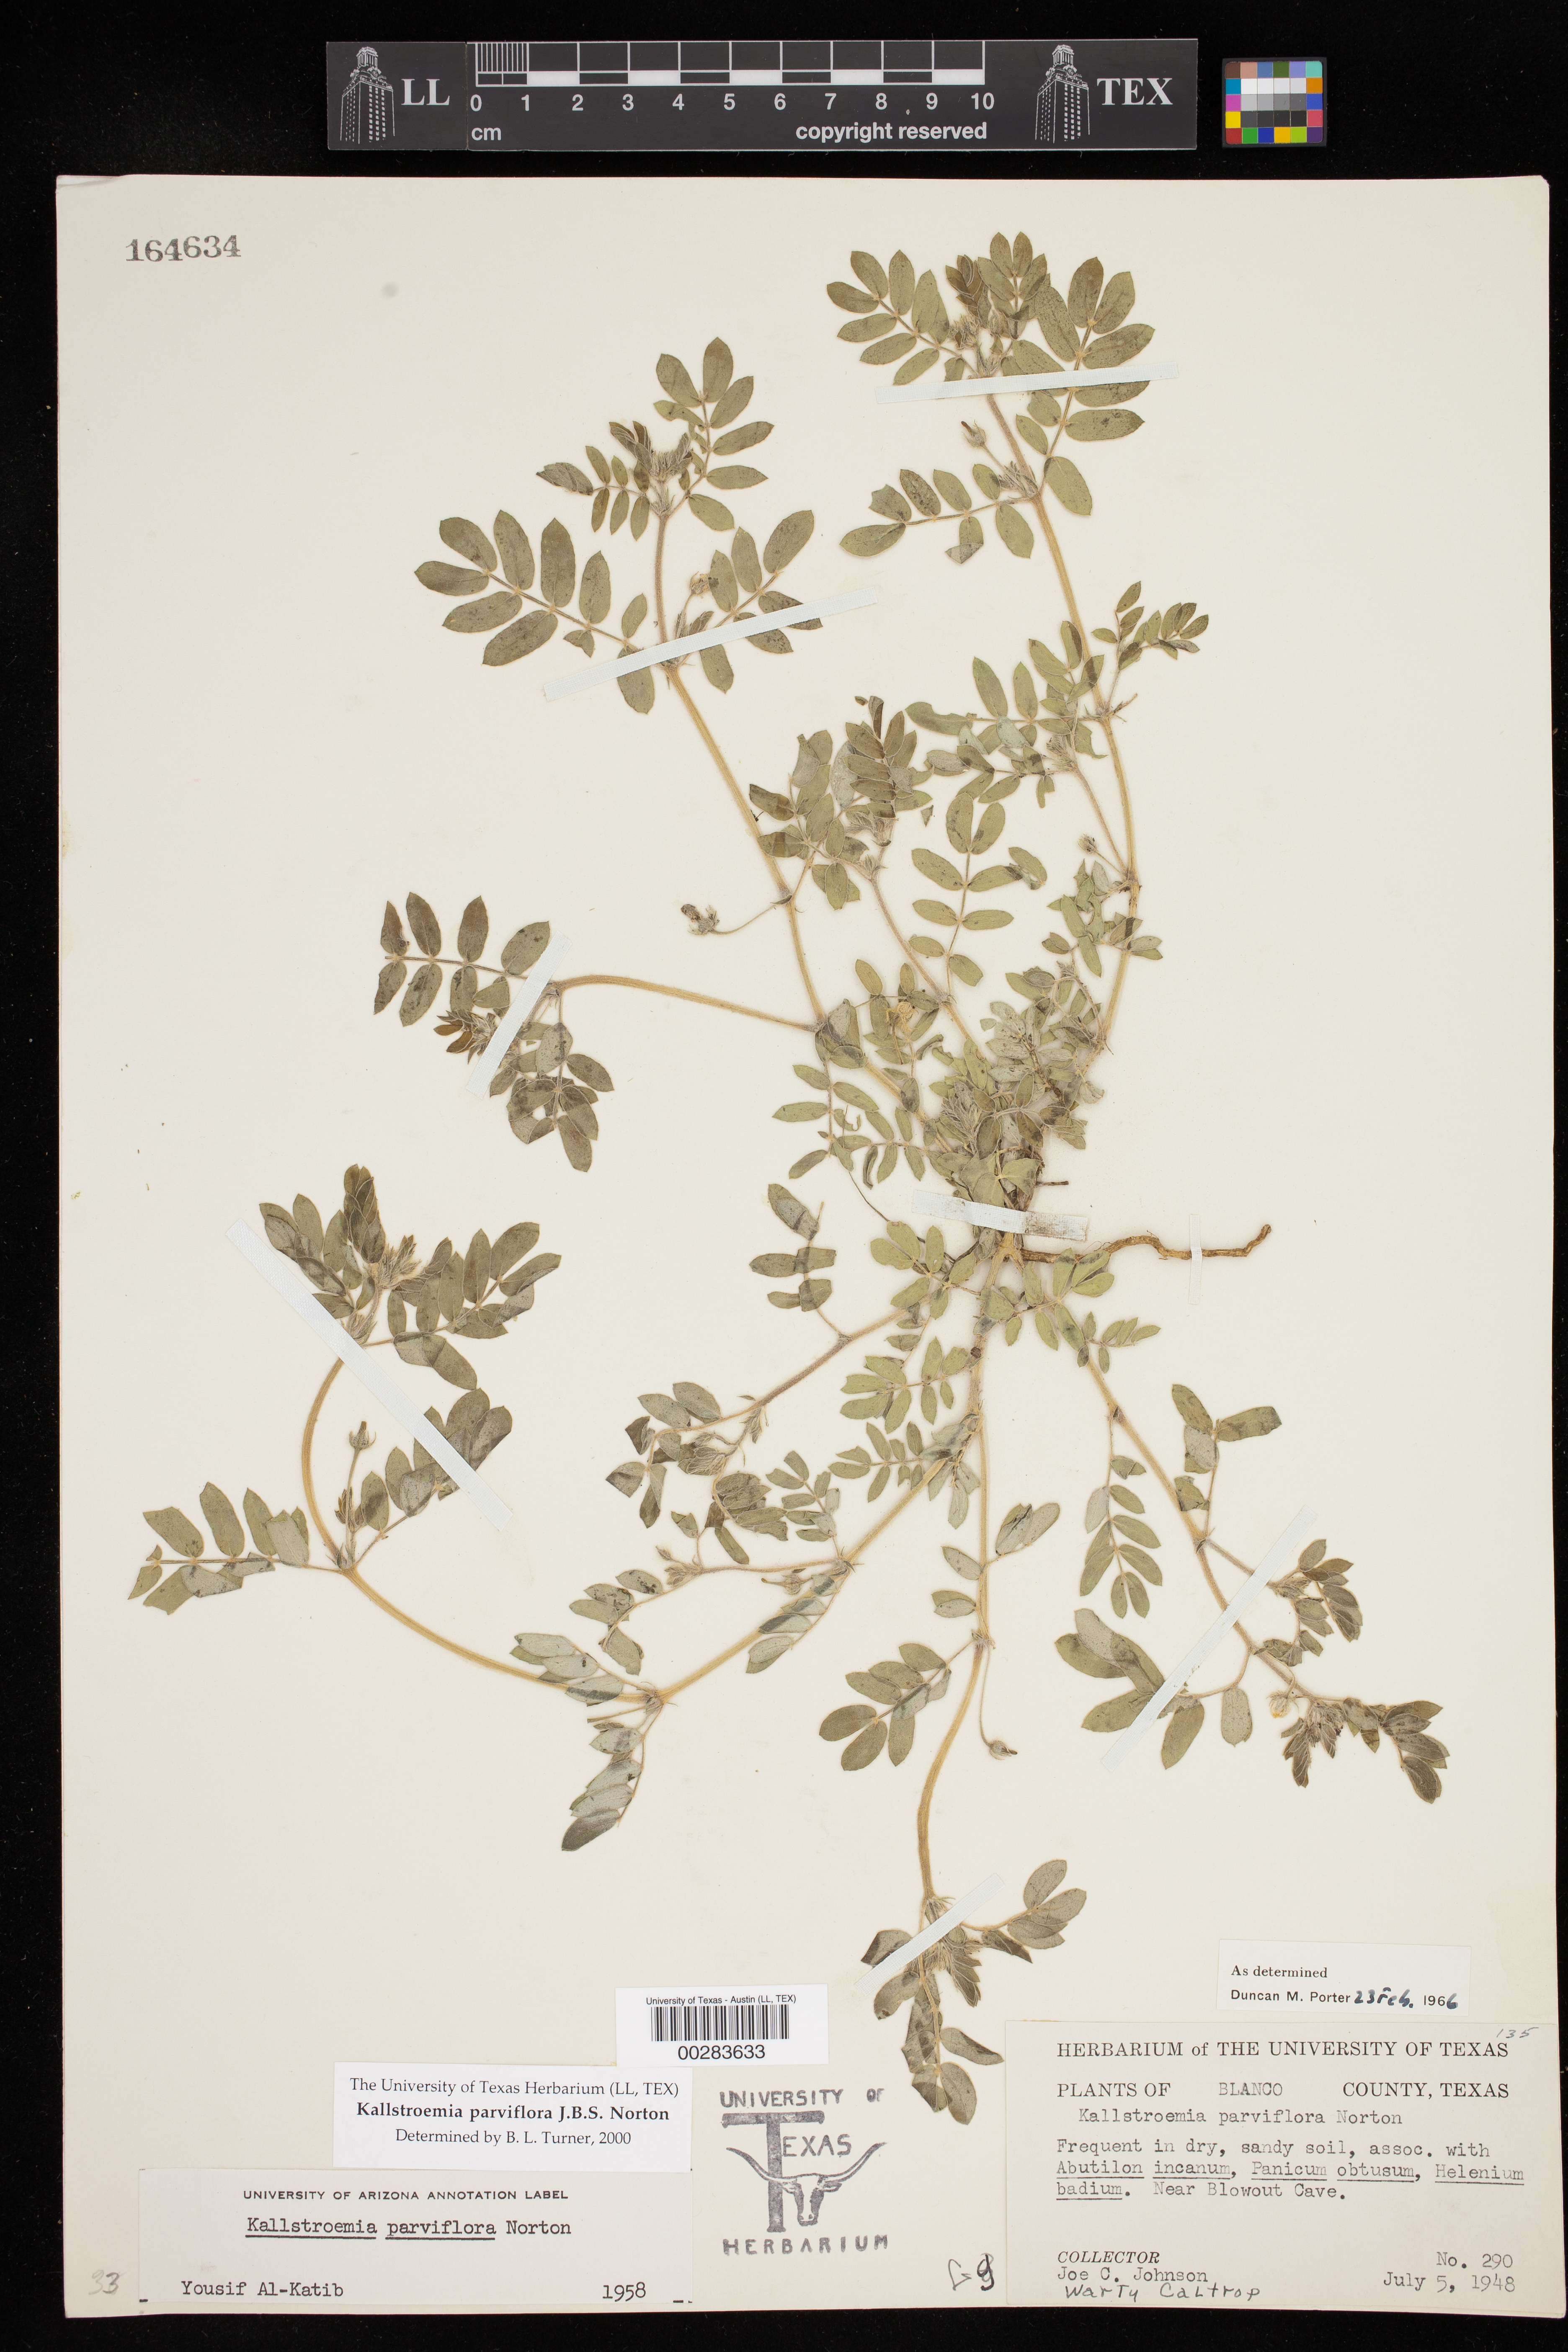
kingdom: Plantae
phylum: Tracheophyta
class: Magnoliopsida
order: Zygophyllales
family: Zygophyllaceae
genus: Kallstroemia
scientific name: Kallstroemia parviflora
